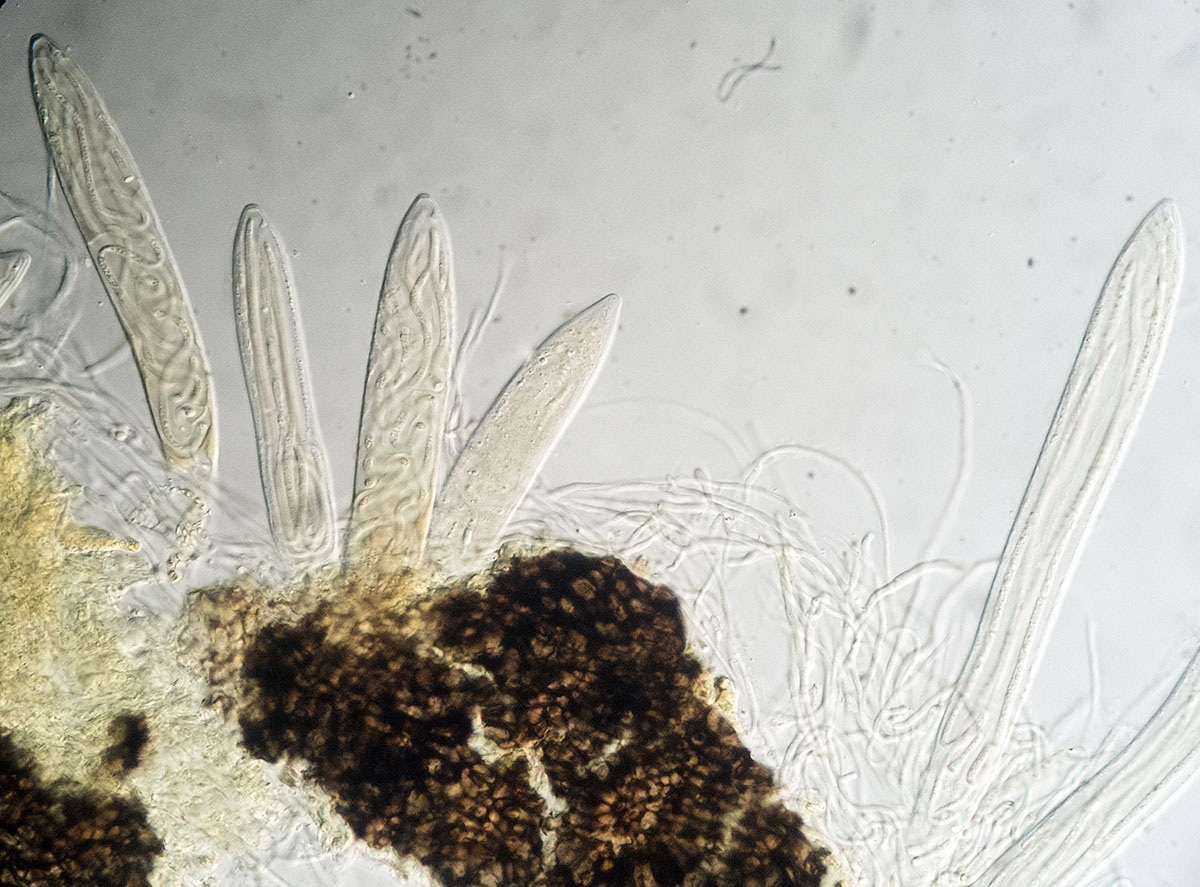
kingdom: Fungi
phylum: Ascomycota
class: Leotiomycetes
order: Rhytismatales
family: Rhytismataceae
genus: Lophodermium
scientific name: Lophodermium eriophori
